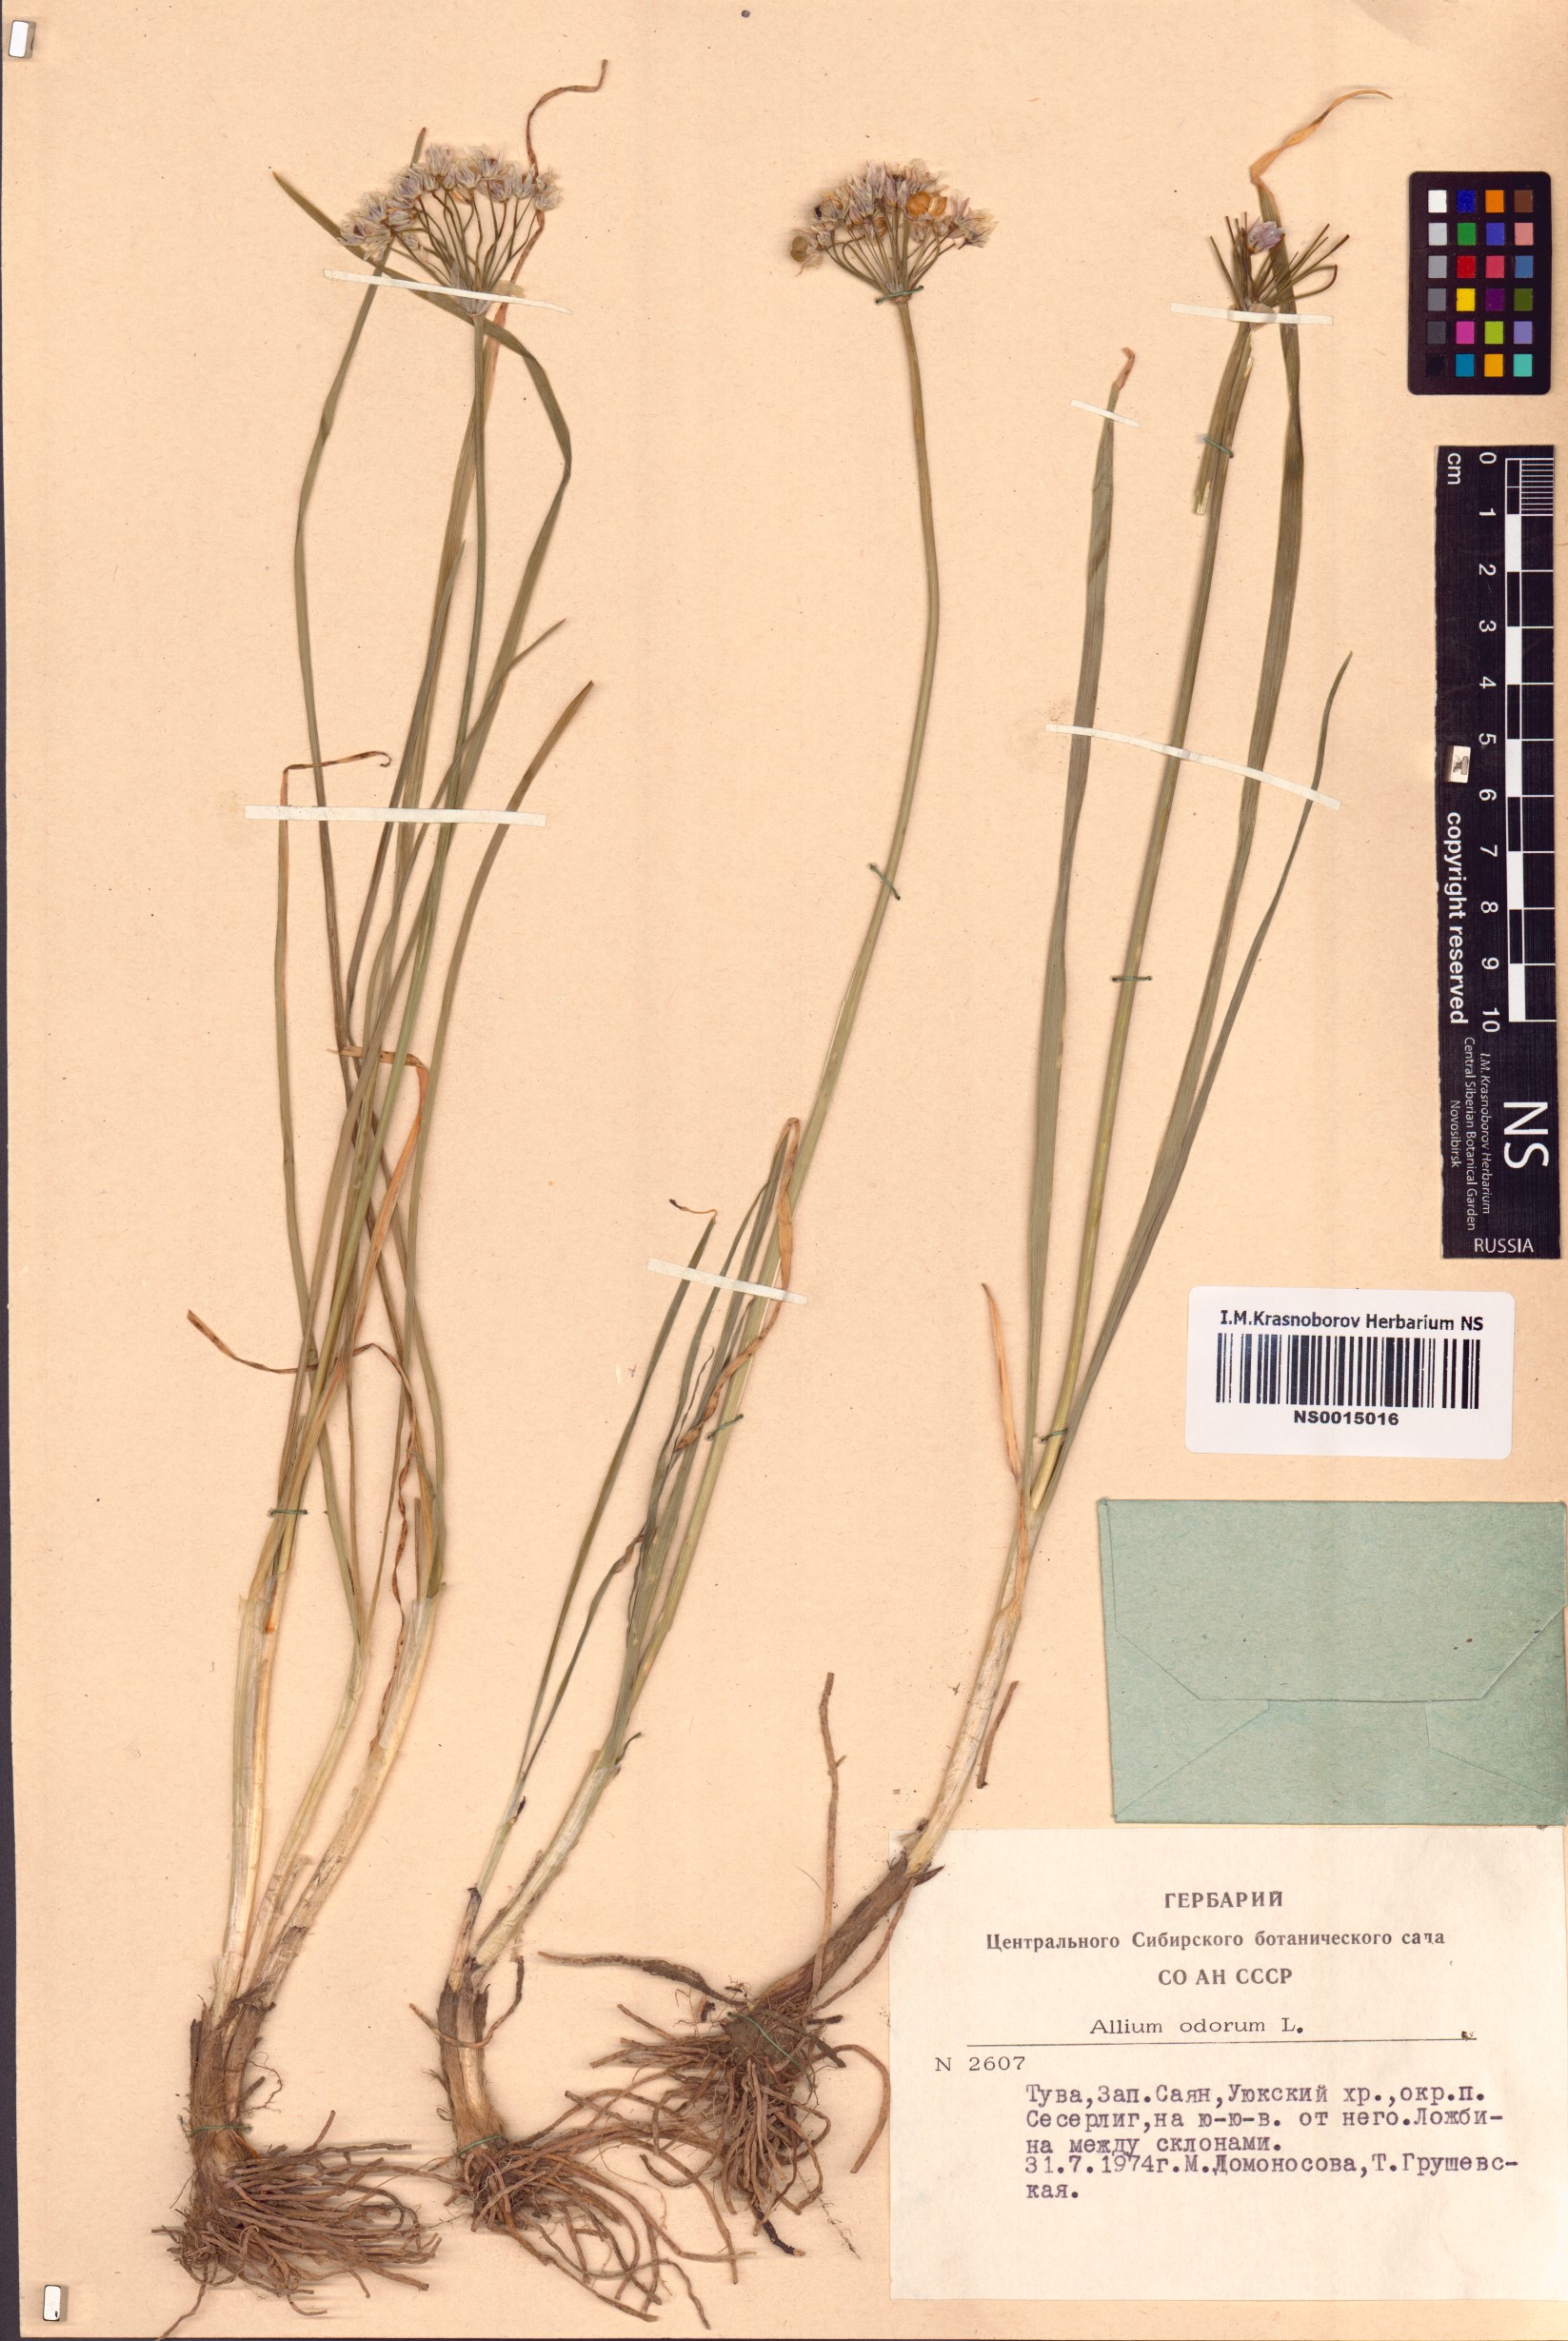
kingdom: Plantae
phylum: Tracheophyta
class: Liliopsida
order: Asparagales
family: Amaryllidaceae
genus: Allium
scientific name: Allium ramosum
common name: Fragrant garlic
